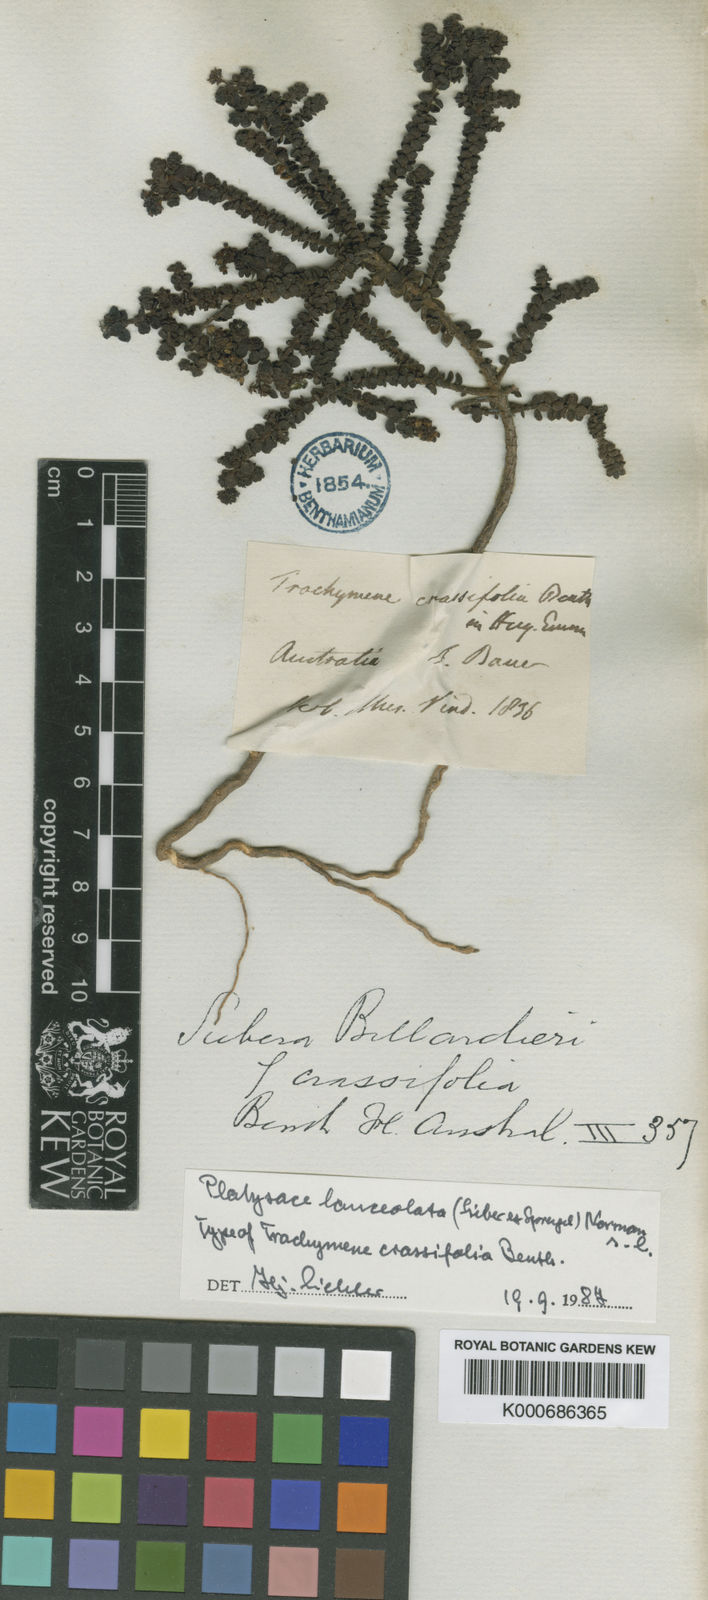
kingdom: Plantae
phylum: Tracheophyta
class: Magnoliopsida
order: Apiales
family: Apiaceae
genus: Platysace
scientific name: Platysace lanceolata
